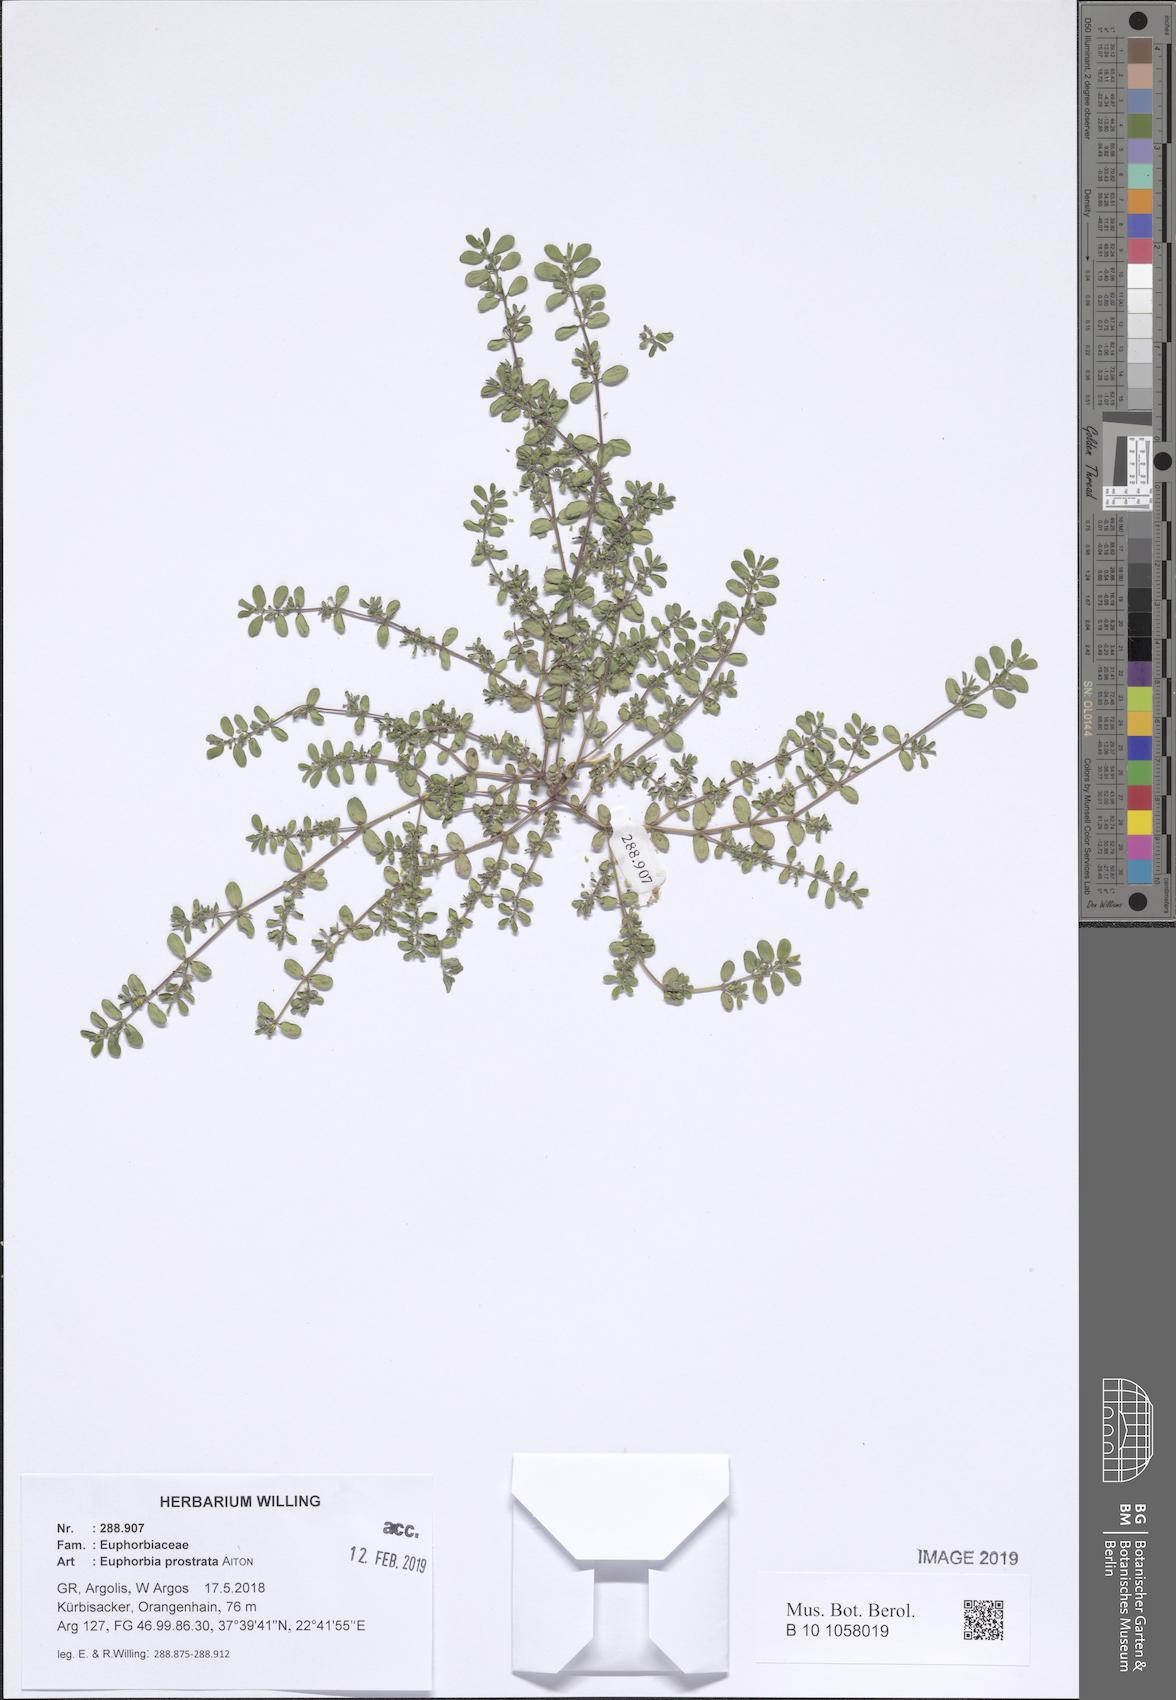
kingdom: Plantae
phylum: Tracheophyta
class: Magnoliopsida
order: Malpighiales
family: Euphorbiaceae
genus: Euphorbia
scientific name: Euphorbia prostrata
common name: Prostrate sandmat
